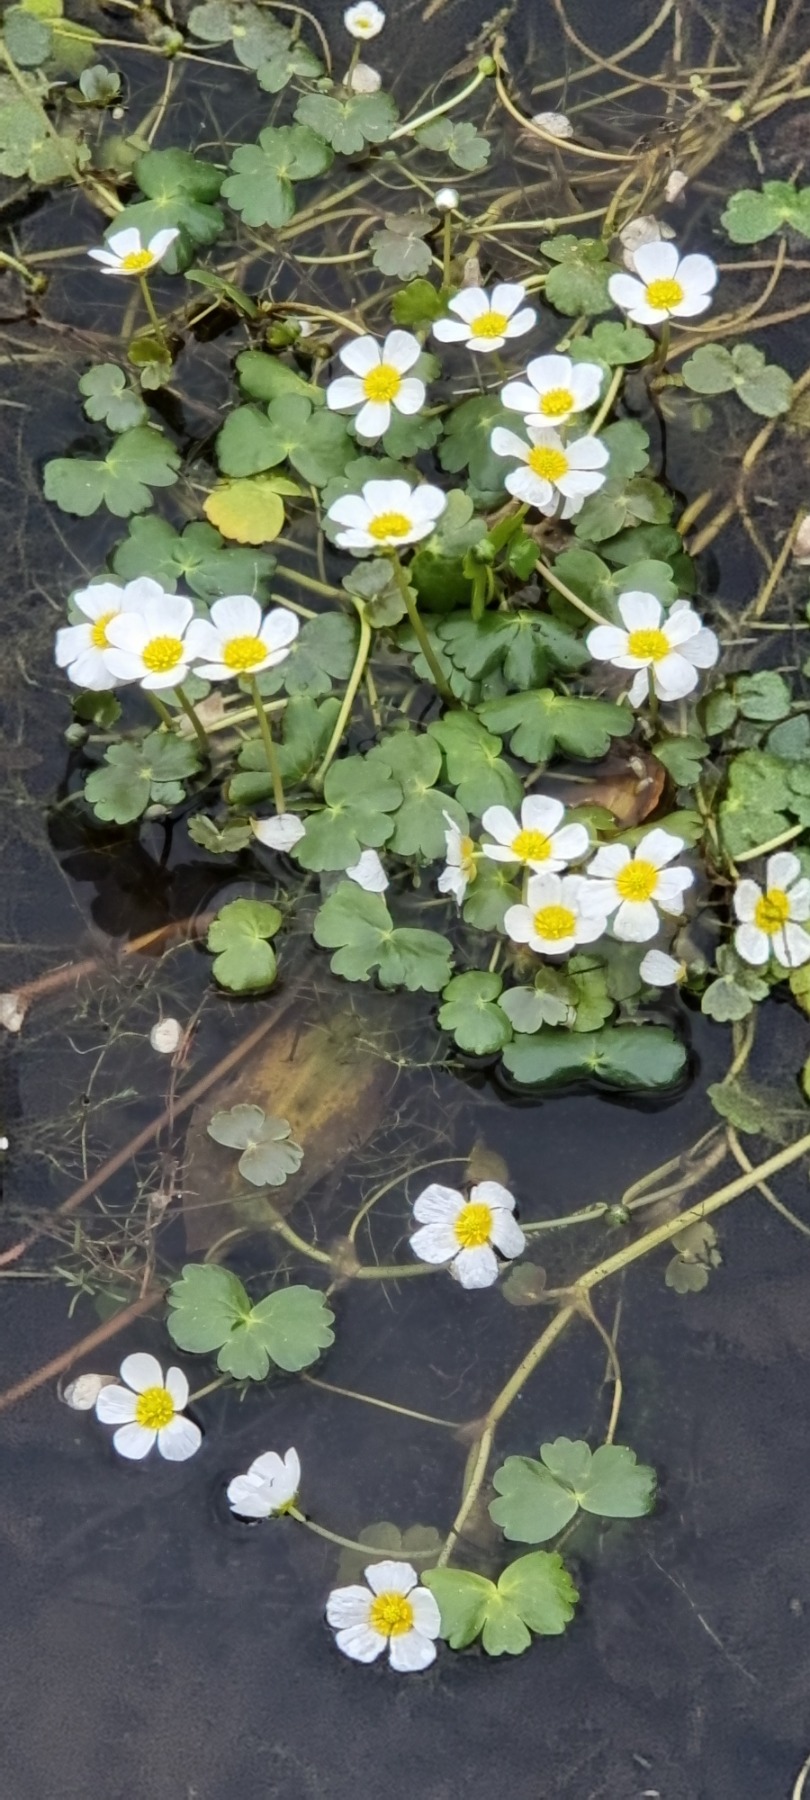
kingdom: Plantae
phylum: Tracheophyta
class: Magnoliopsida
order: Ranunculales
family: Ranunculaceae
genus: Ranunculus
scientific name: Ranunculus peltatus
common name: Storblomstret vandranunkel
